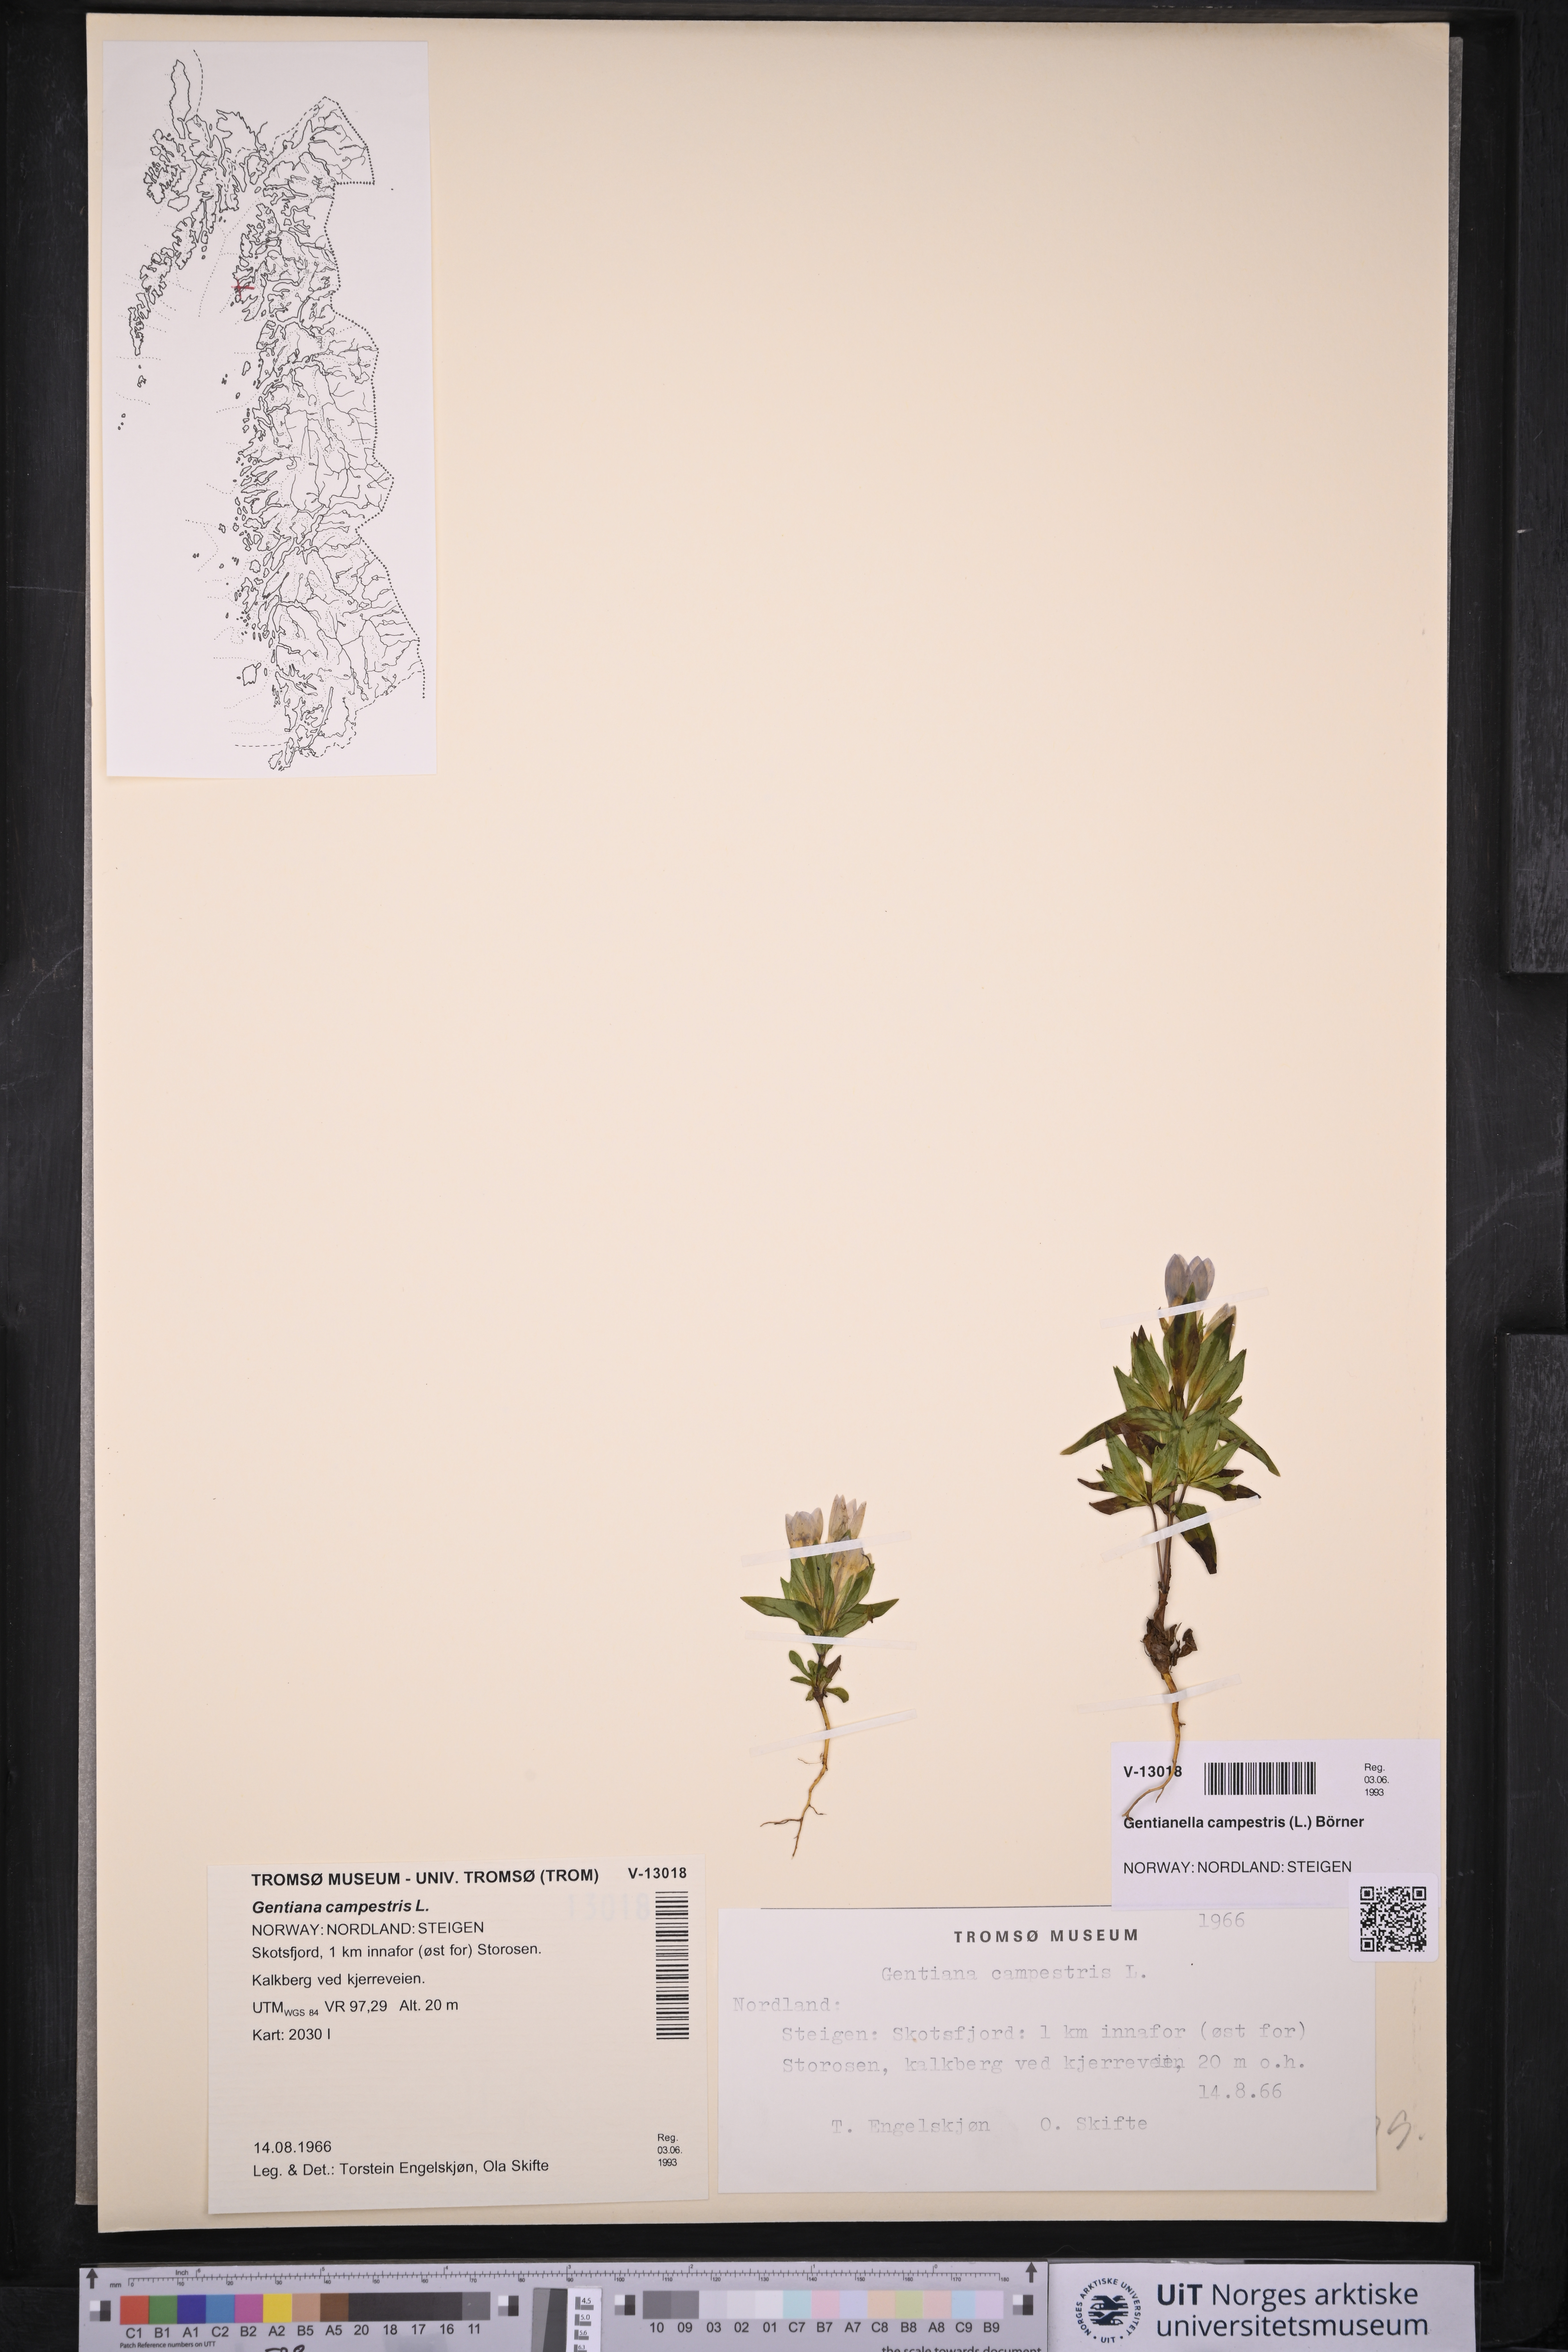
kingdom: Plantae
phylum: Tracheophyta
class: Magnoliopsida
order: Gentianales
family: Gentianaceae
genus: Gentianella
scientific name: Gentianella campestris
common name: Field gentian
